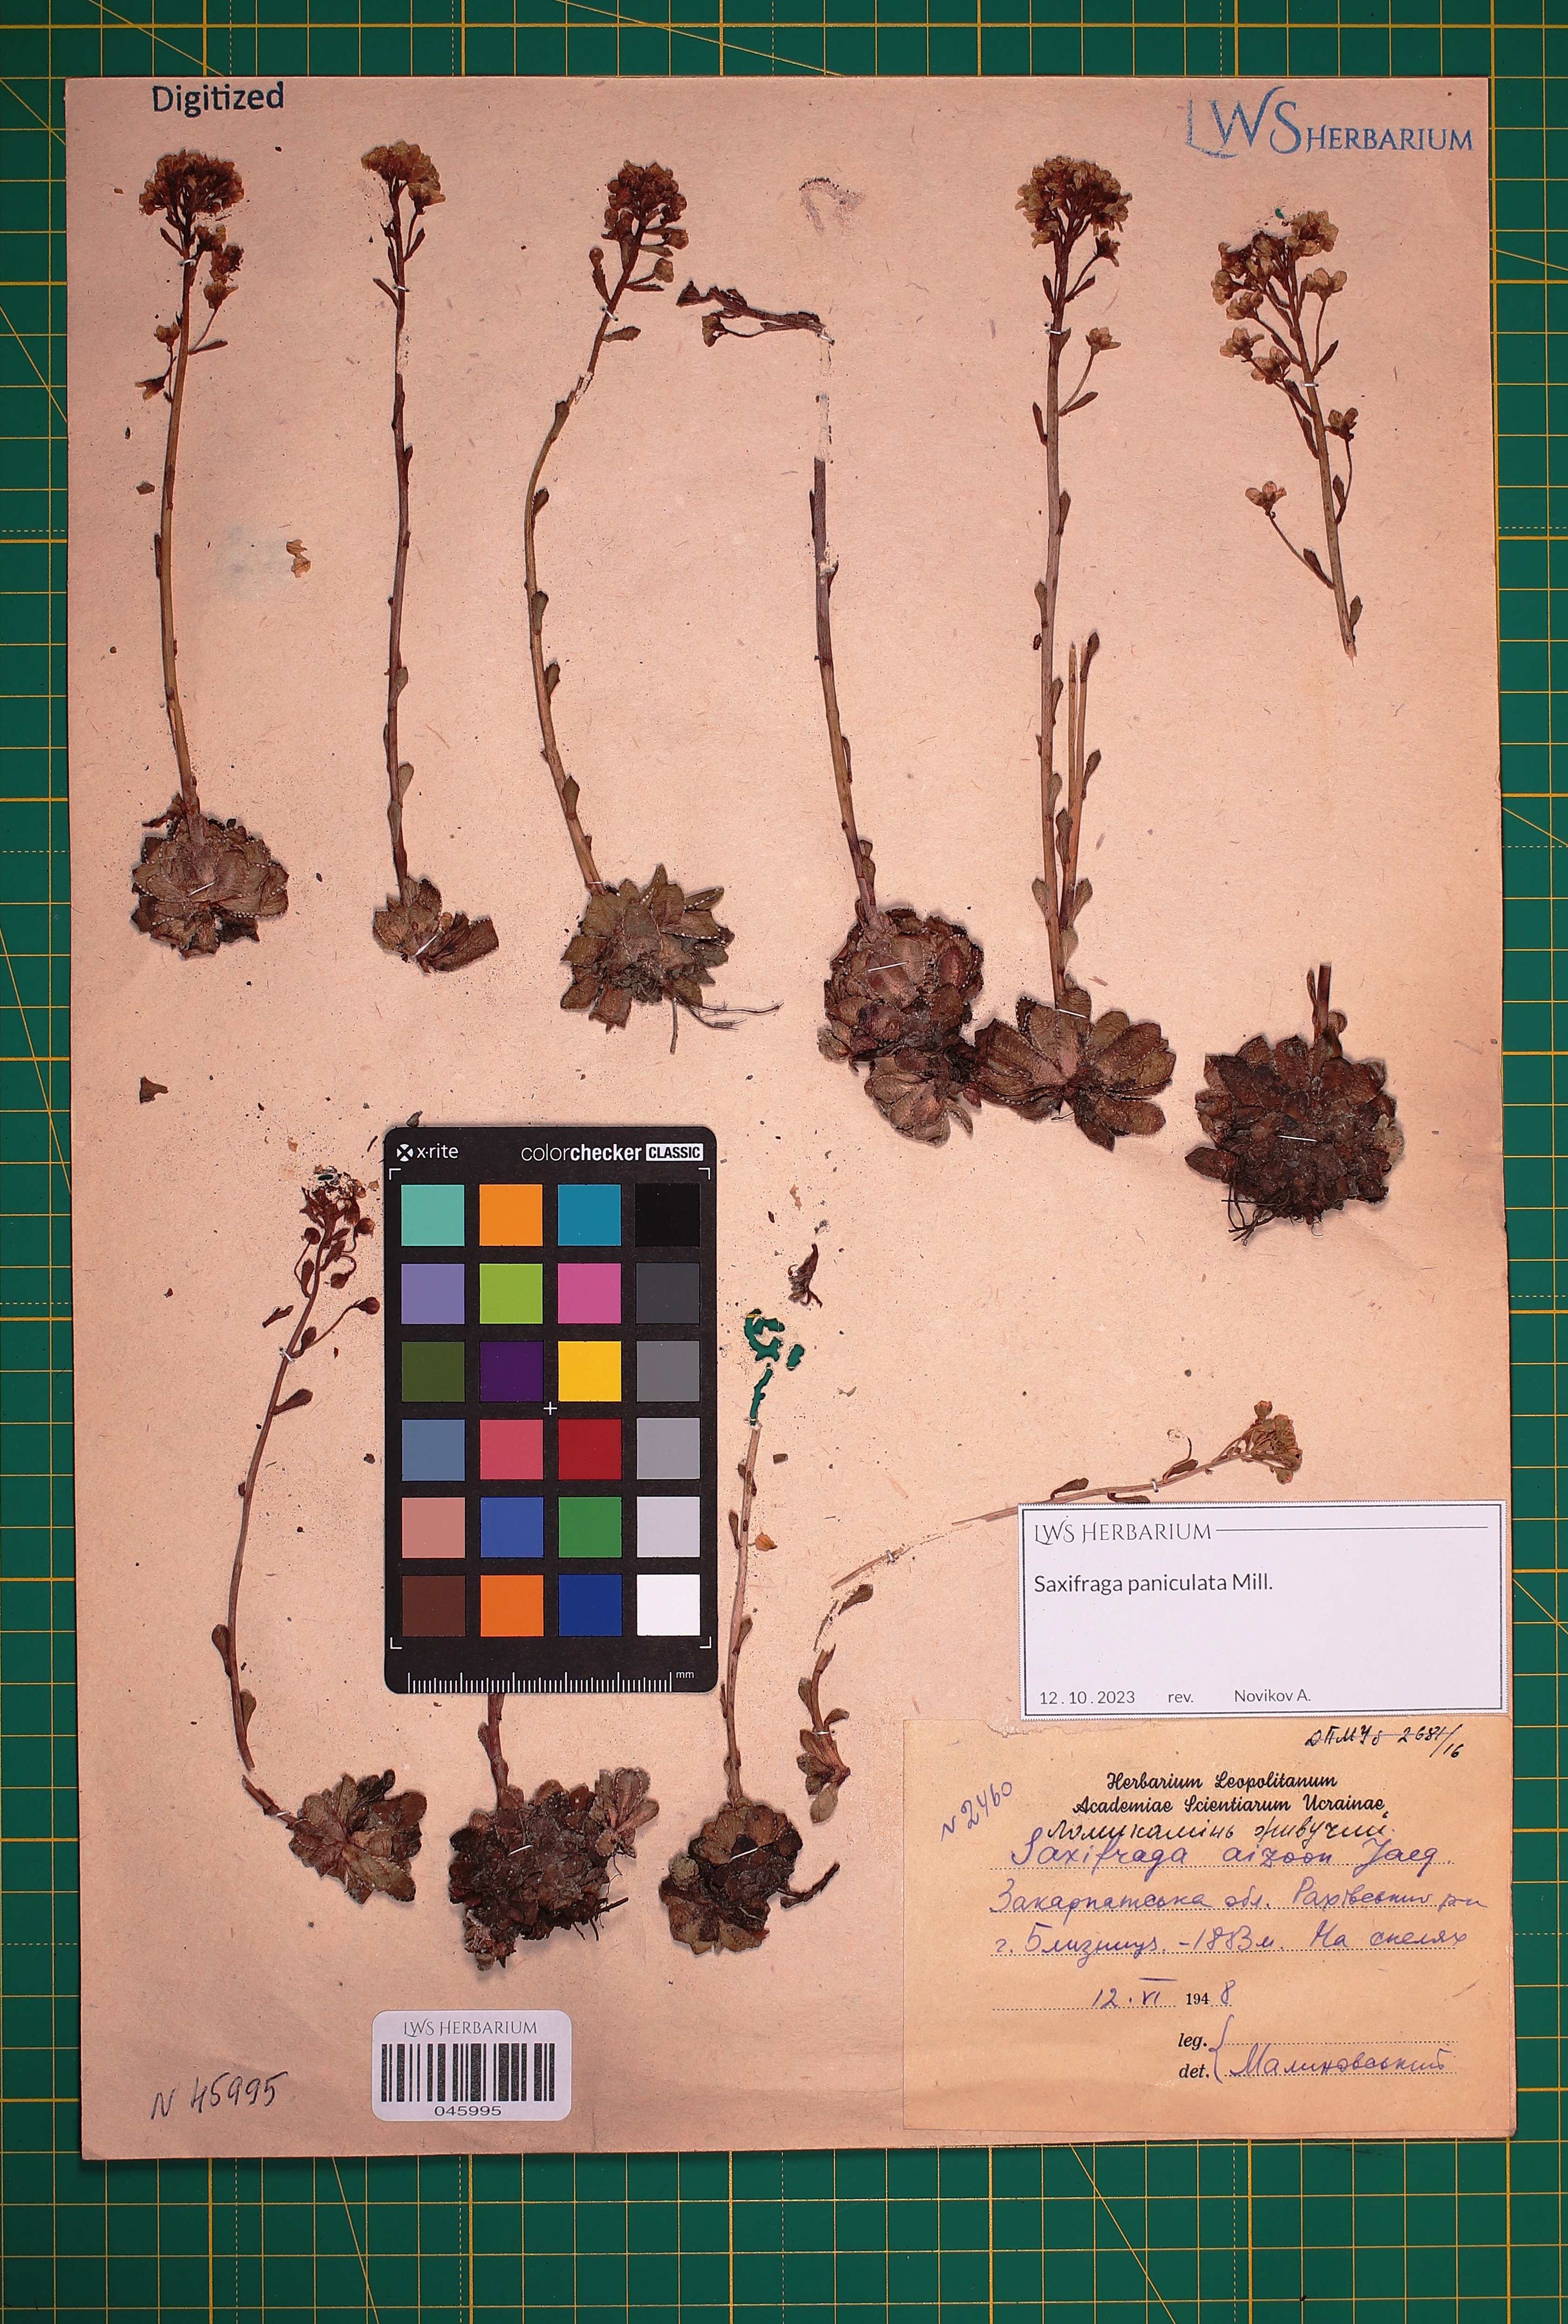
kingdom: Plantae
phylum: Tracheophyta
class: Magnoliopsida
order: Saxifragales
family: Saxifragaceae
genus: Saxifraga
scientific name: Saxifraga paniculata
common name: Livelong saxifrage
